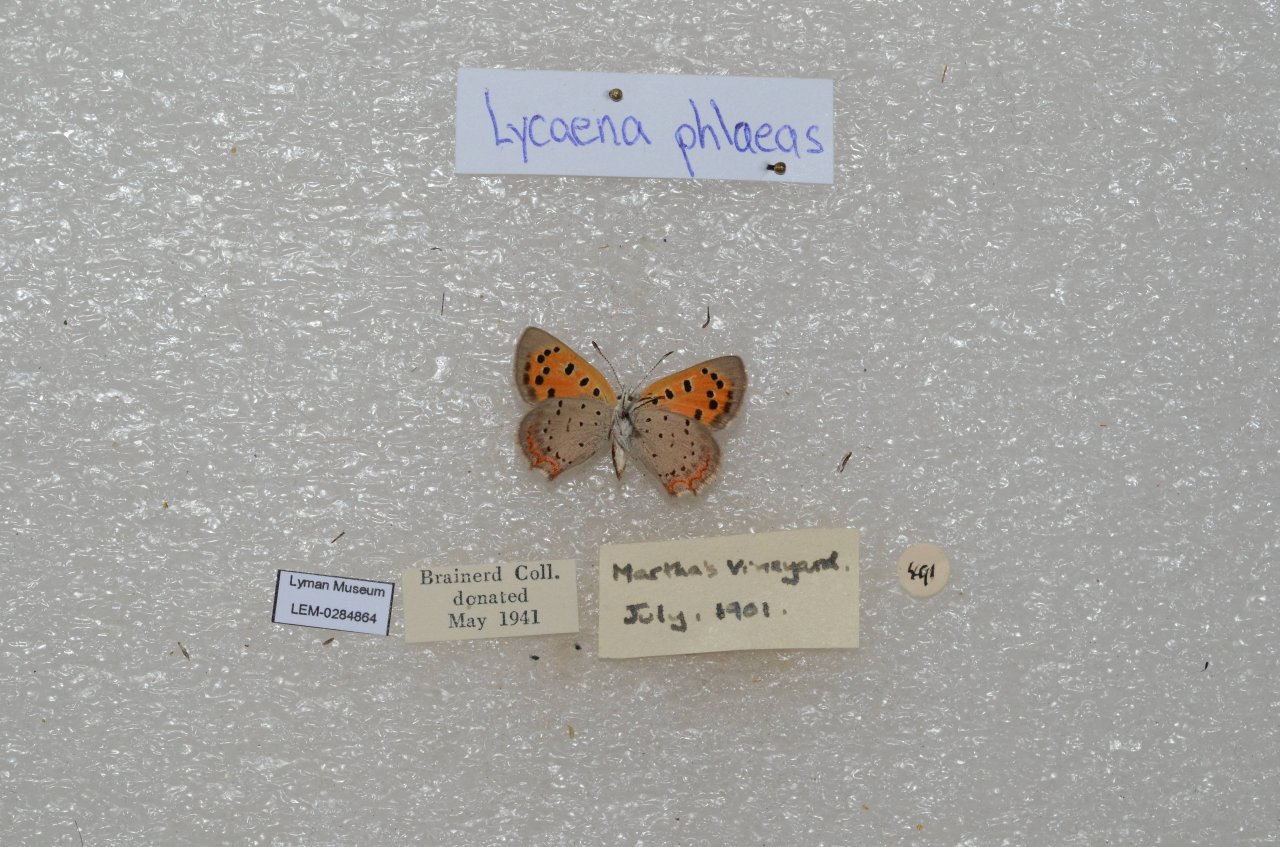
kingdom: Animalia
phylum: Arthropoda
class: Insecta
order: Lepidoptera
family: Lycaenidae
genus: Lycaena
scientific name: Lycaena phlaeas
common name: American Copper
